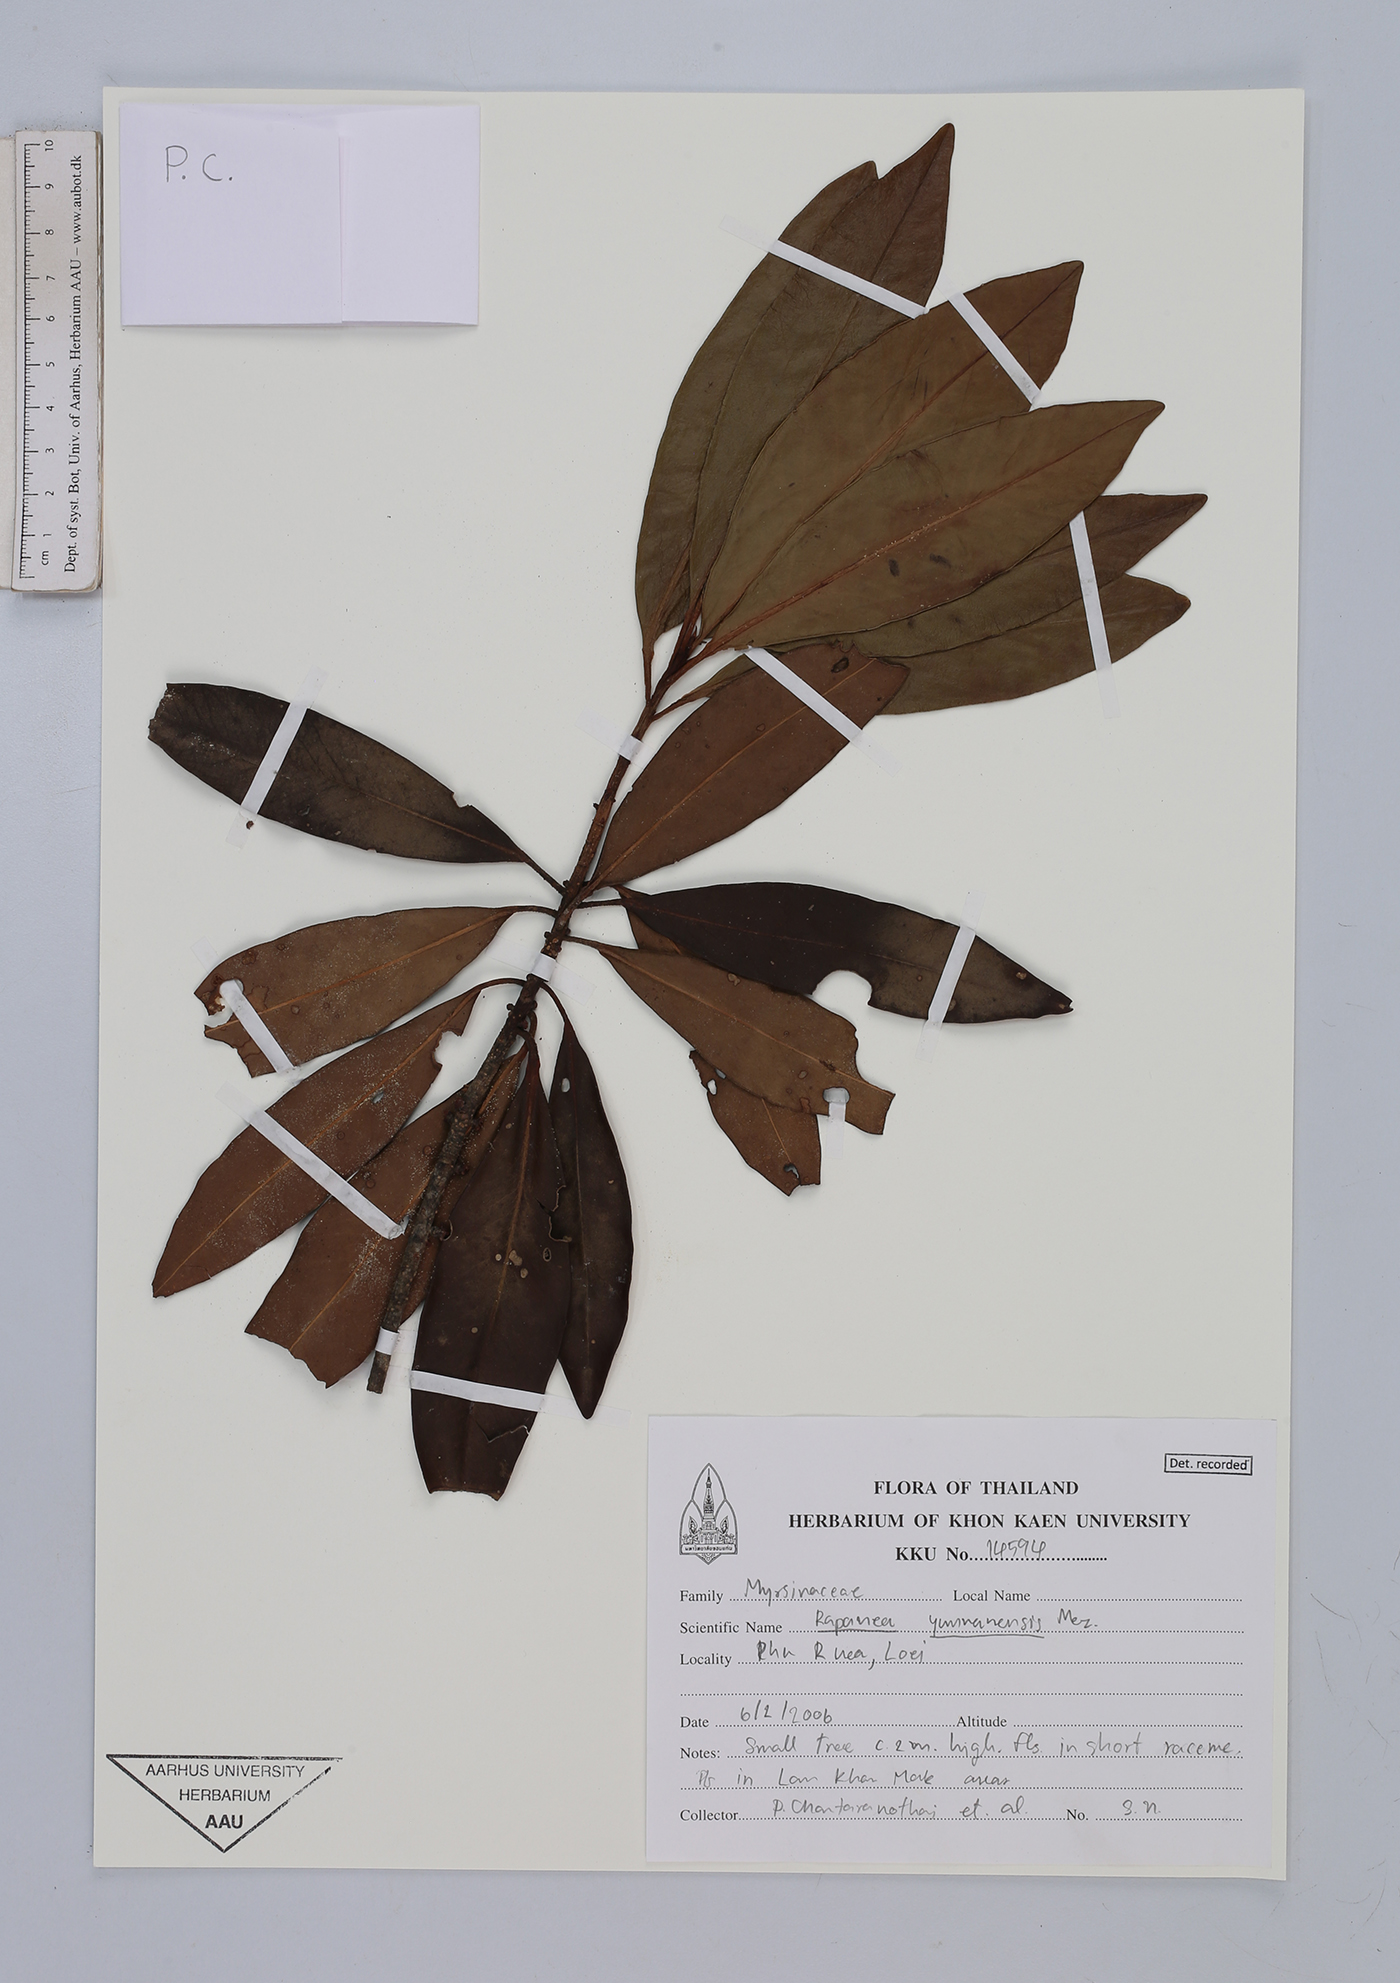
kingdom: Plantae
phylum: Tracheophyta
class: Magnoliopsida
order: Ericales
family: Primulaceae
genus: Myrsine
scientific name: Myrsine seguinii
